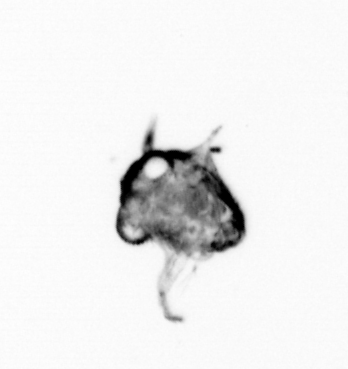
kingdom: Animalia
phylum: Arthropoda
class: Malacostraca
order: Decapoda
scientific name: Decapoda
